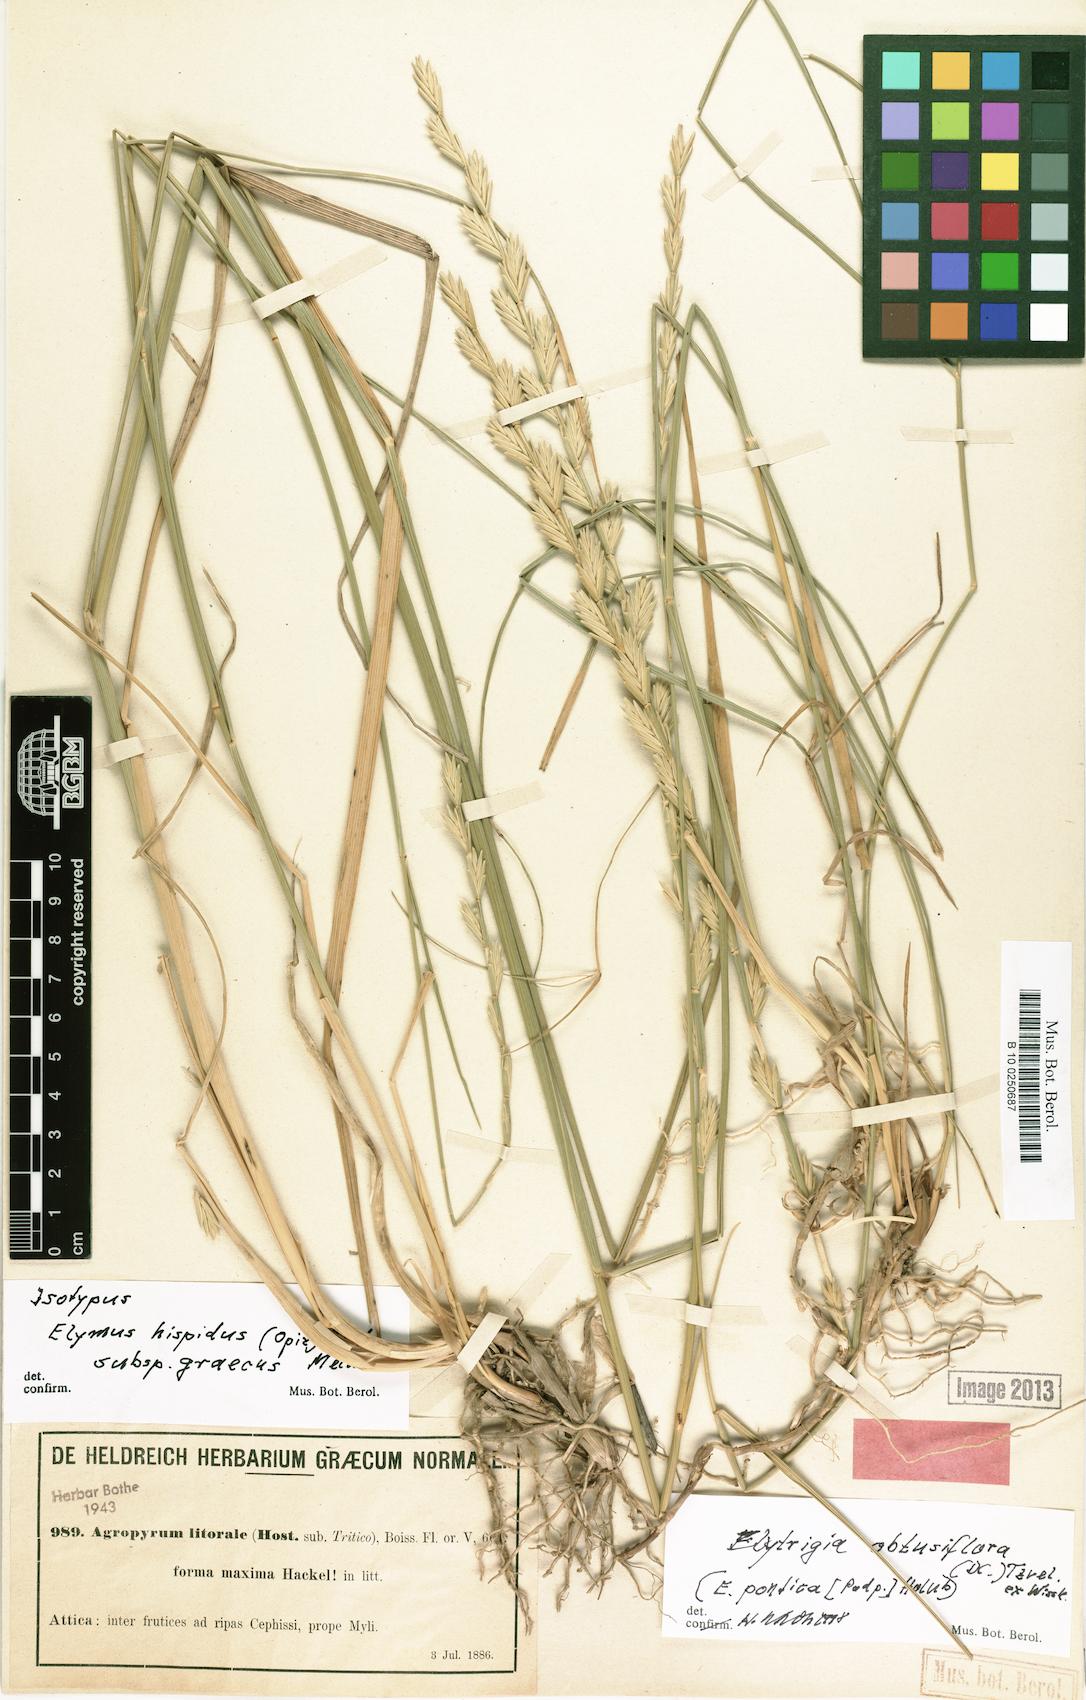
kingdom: Plantae
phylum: Tracheophyta
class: Liliopsida
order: Poales
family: Poaceae
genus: Thinopyrum
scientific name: Thinopyrum intermedium
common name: Intermediate wheatgrass
